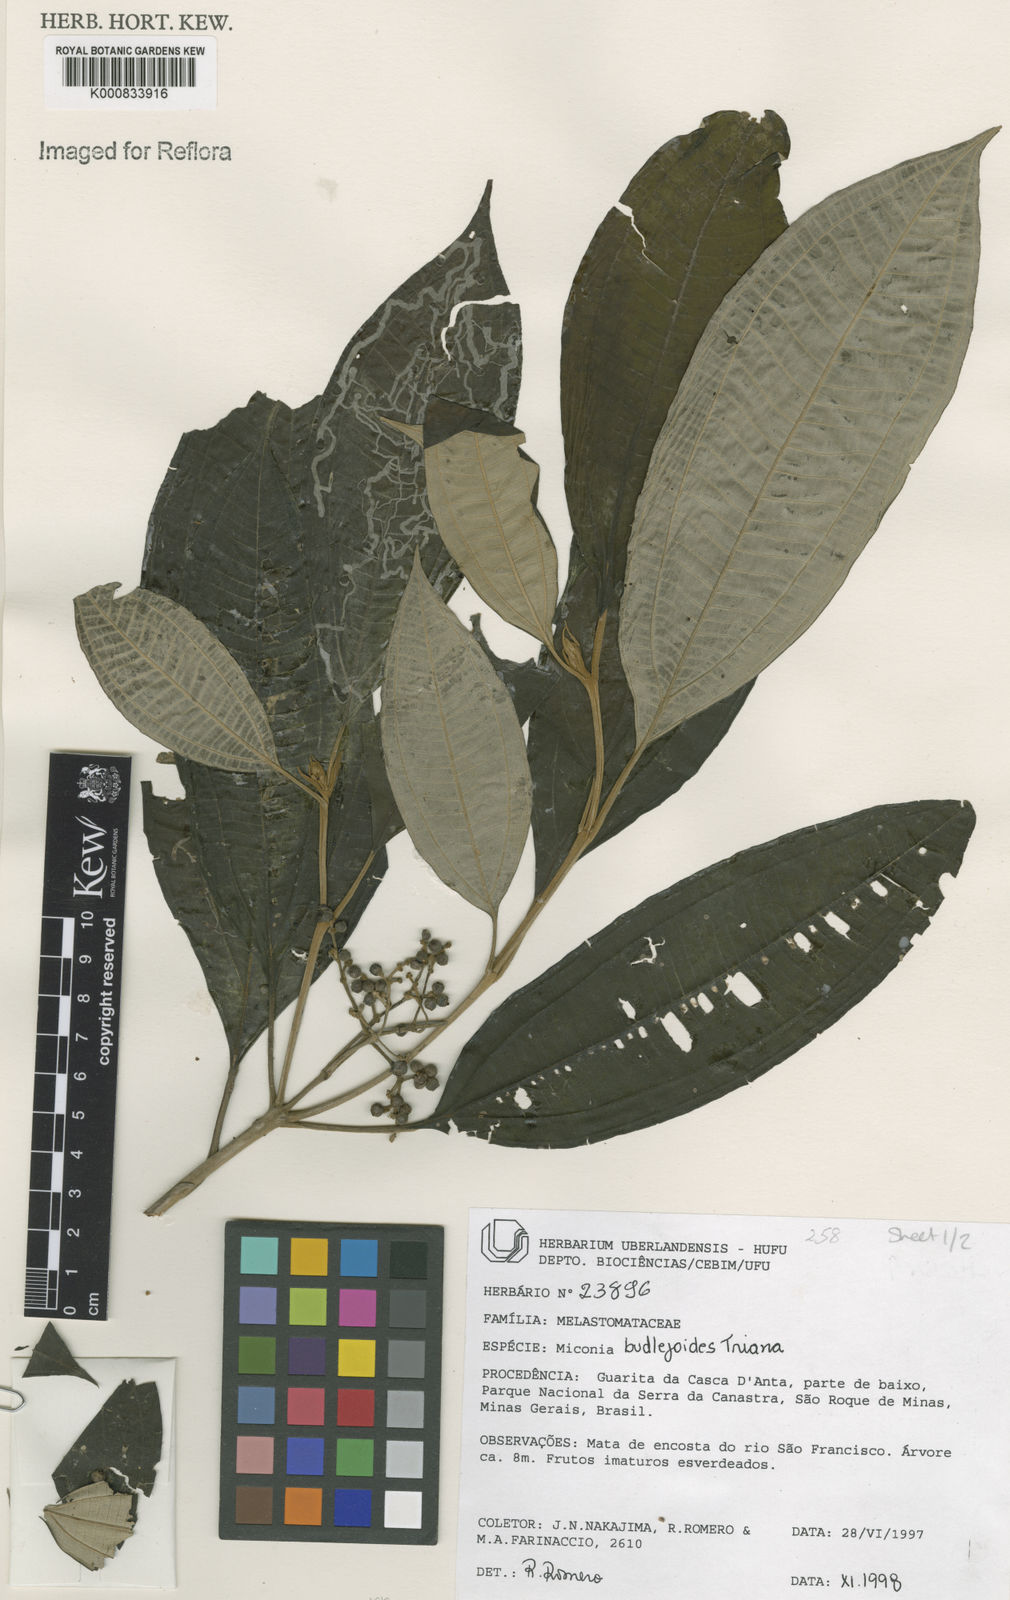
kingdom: Plantae
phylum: Tracheophyta
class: Magnoliopsida
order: Myrtales
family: Melastomataceae
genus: Miconia
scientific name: Miconia buddlejoides
